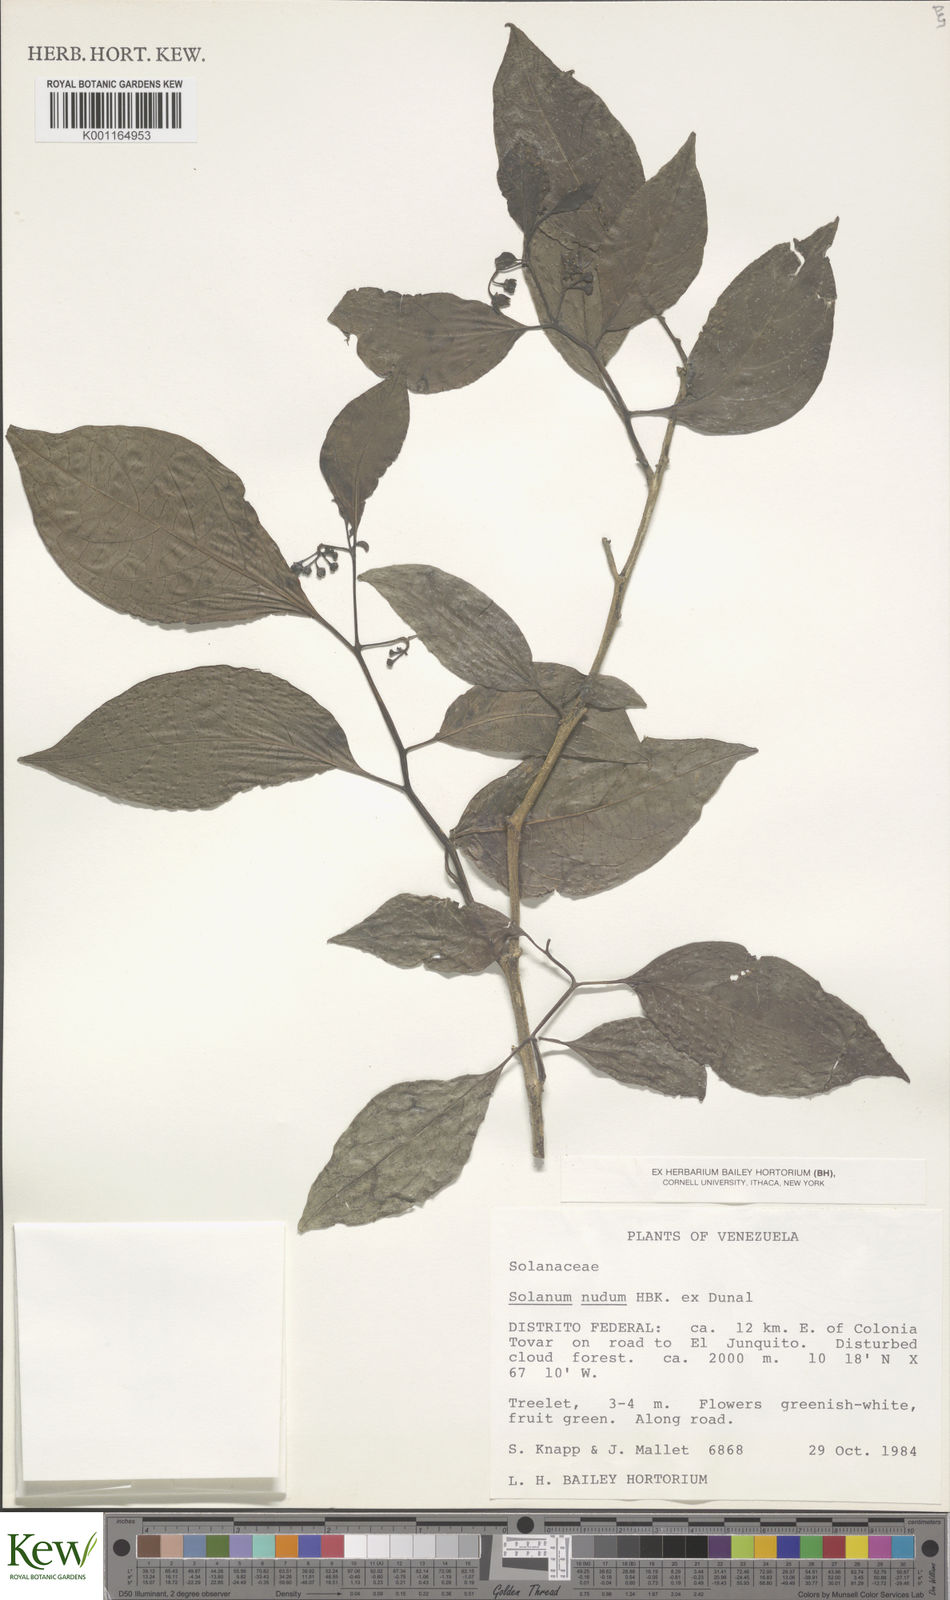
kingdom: Plantae
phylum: Tracheophyta
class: Magnoliopsida
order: Solanales
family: Solanaceae
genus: Solanum
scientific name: Solanum nudum
